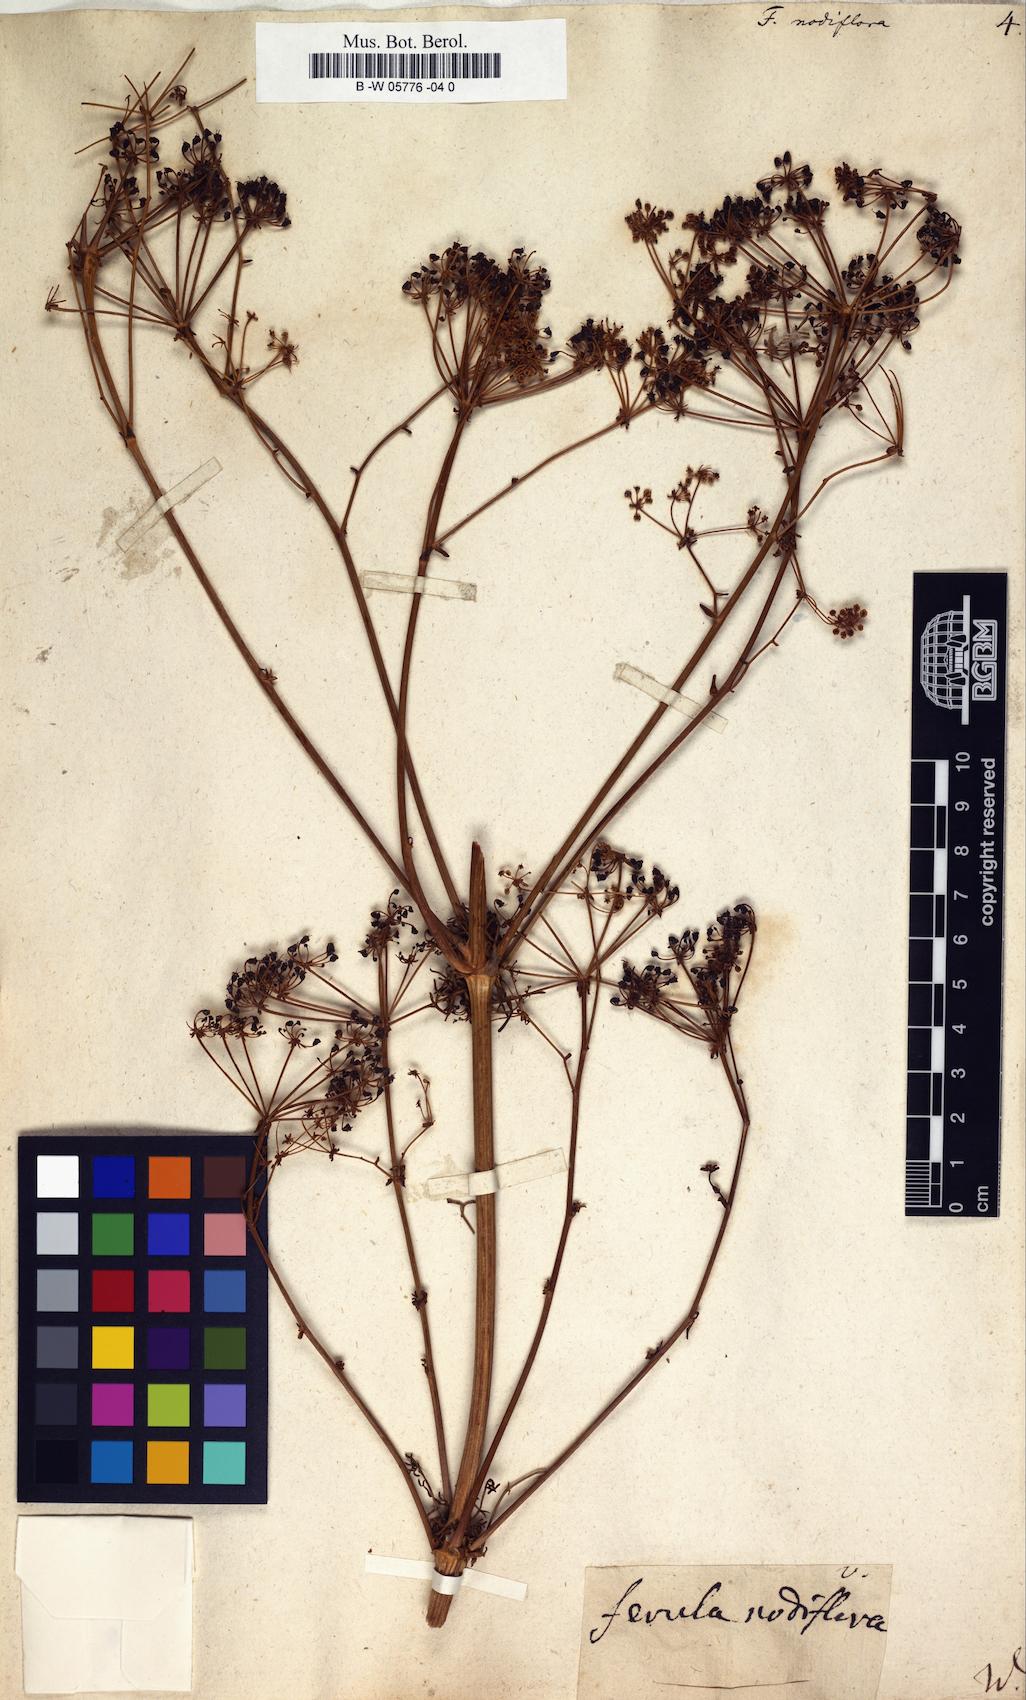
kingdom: Plantae
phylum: Tracheophyta
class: Magnoliopsida
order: Apiales
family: Apiaceae
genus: Ferula
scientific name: Ferula communis
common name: Giant fennel
